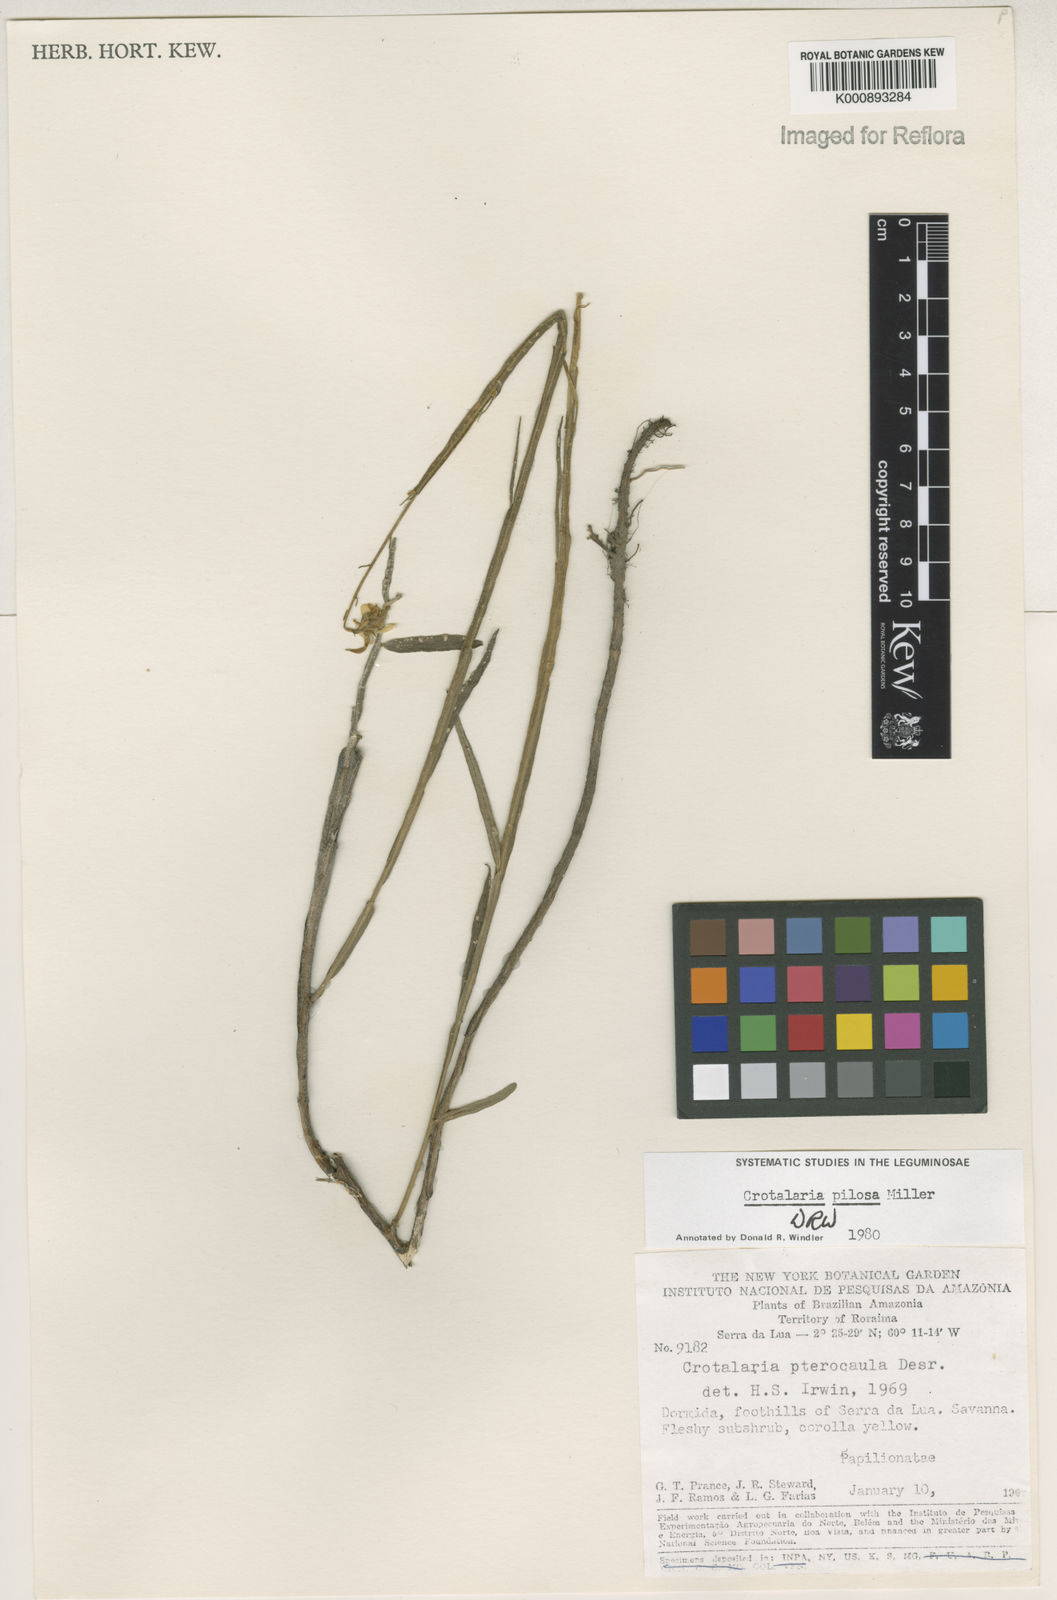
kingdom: Plantae
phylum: Tracheophyta
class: Magnoliopsida
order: Fabales
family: Fabaceae
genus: Crotalaria
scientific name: Crotalaria pilosa
